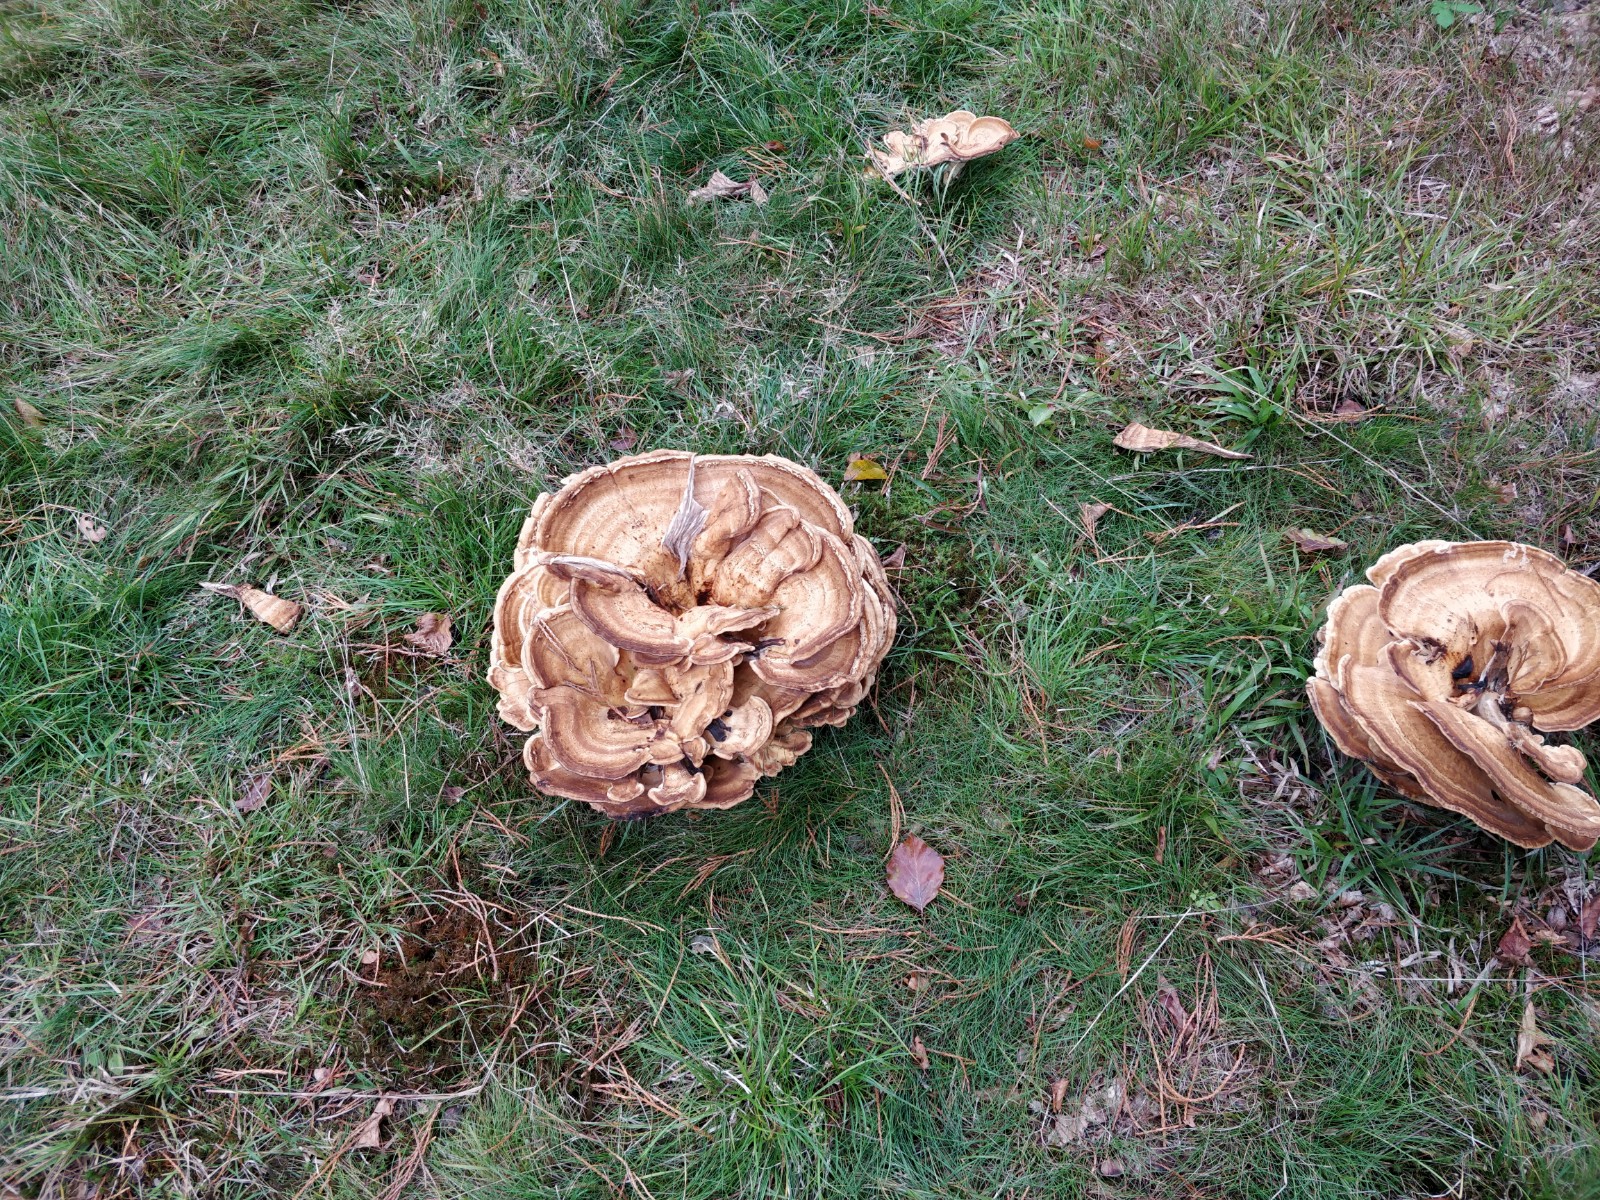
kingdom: Fungi
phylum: Basidiomycota
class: Agaricomycetes
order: Polyporales
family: Meripilaceae
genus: Meripilus
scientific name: Meripilus giganteus
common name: kæmpeporesvamp
